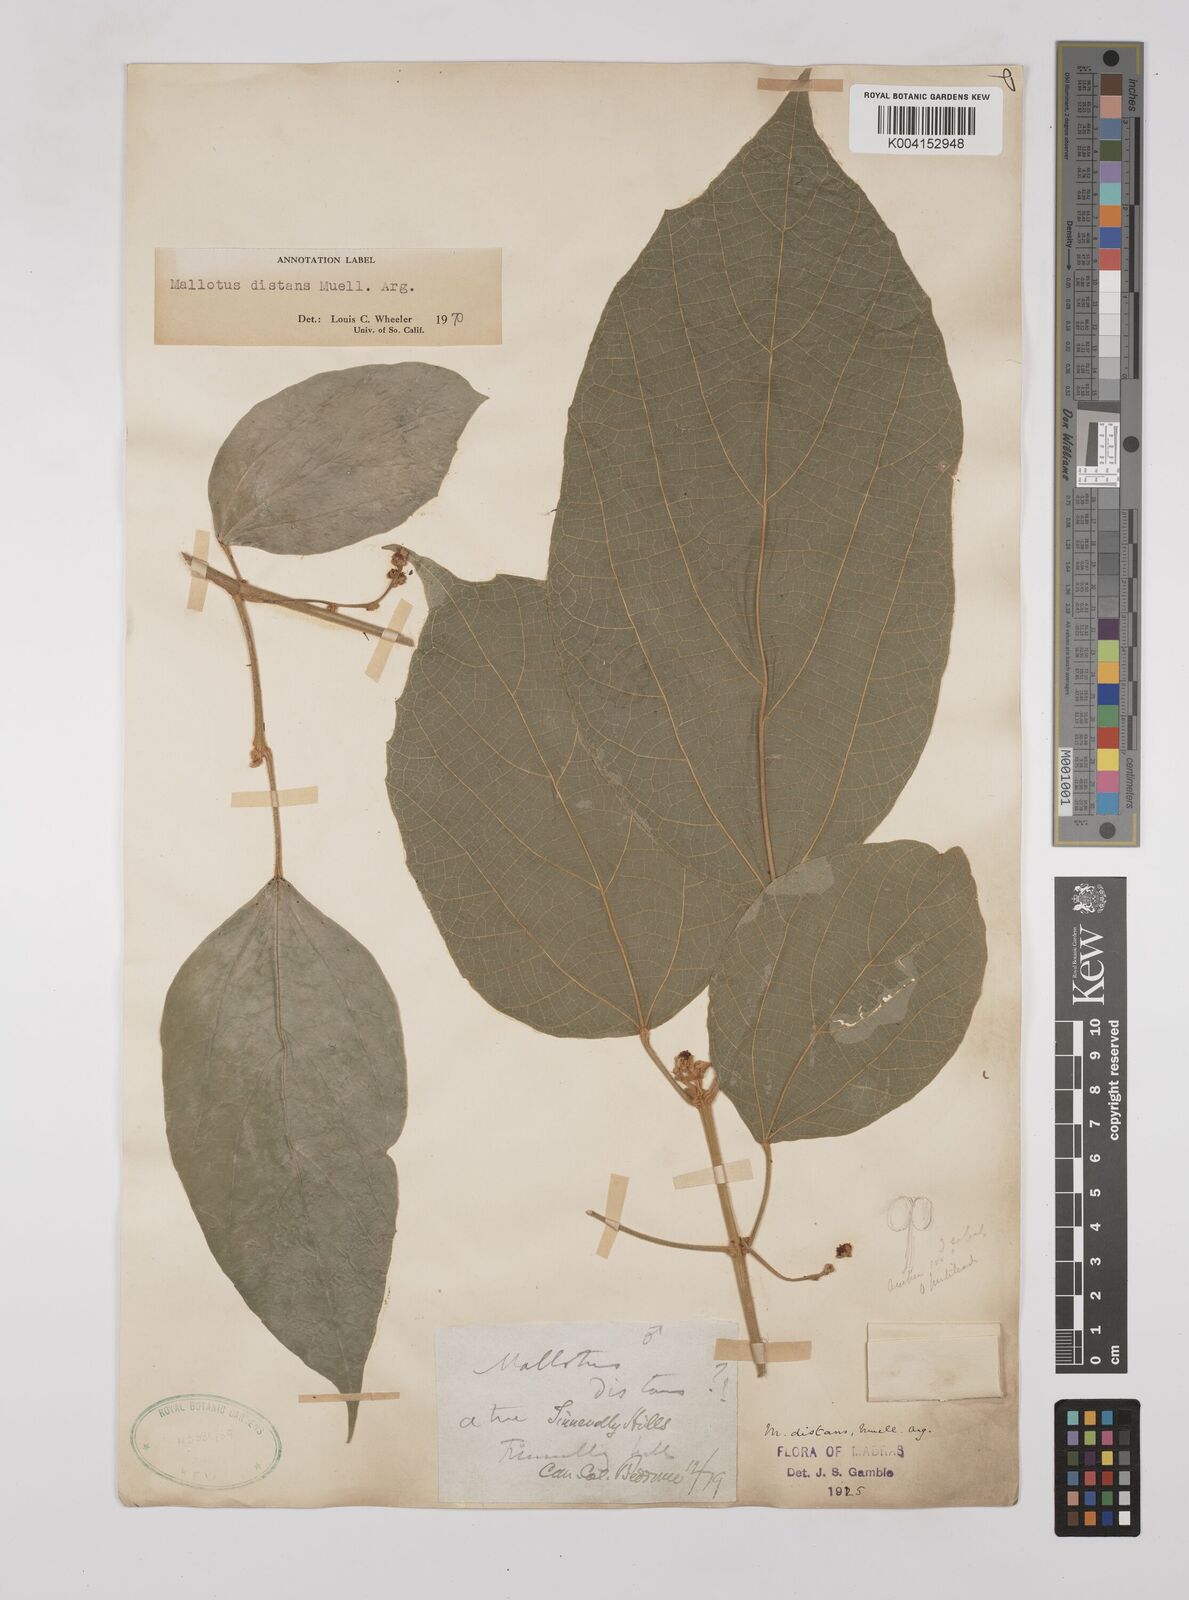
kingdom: Plantae
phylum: Tracheophyta
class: Magnoliopsida
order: Malpighiales
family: Euphorbiaceae
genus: Mallotus
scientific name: Mallotus distans
